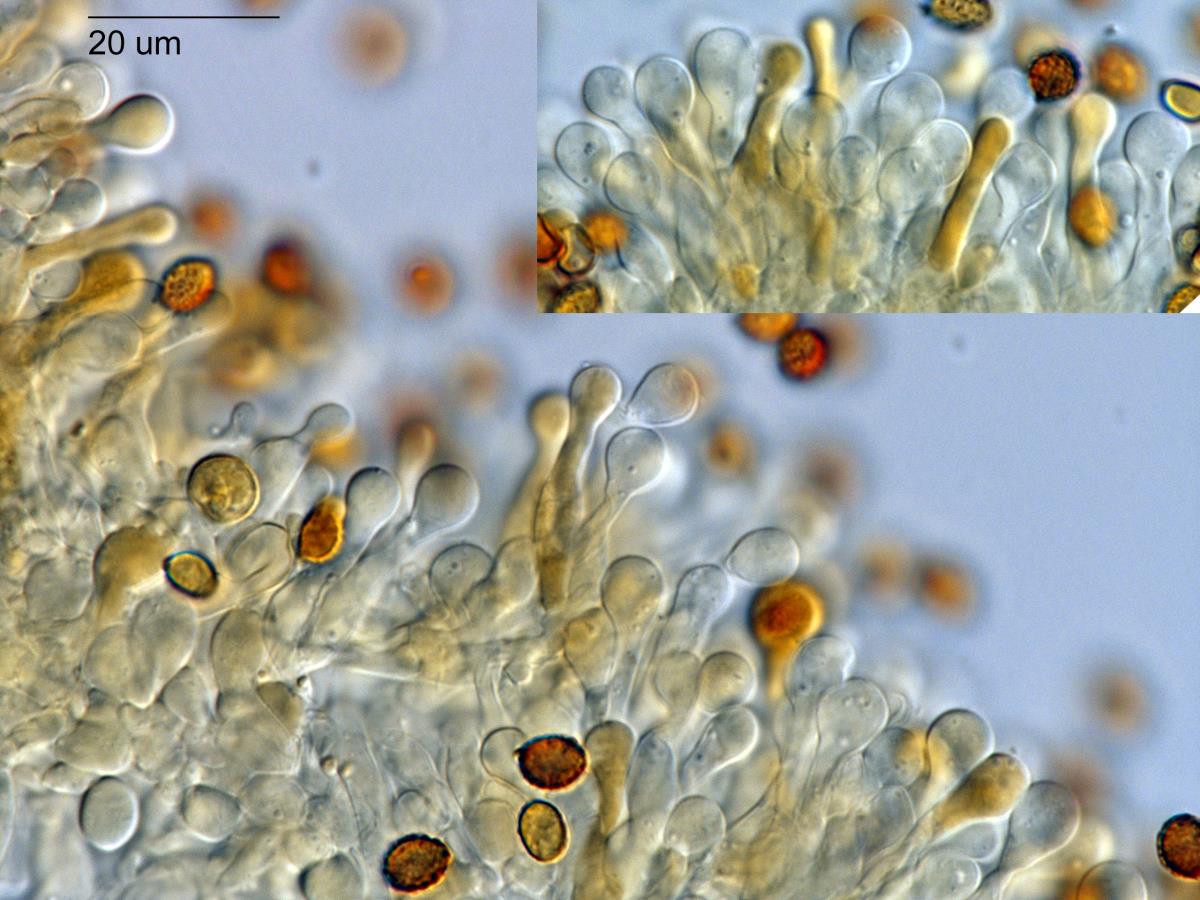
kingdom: Fungi
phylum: Basidiomycota
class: Agaricomycetes
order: Agaricales
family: Hymenogastraceae
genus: Gymnopilus
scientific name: Gymnopilus mesosporus
